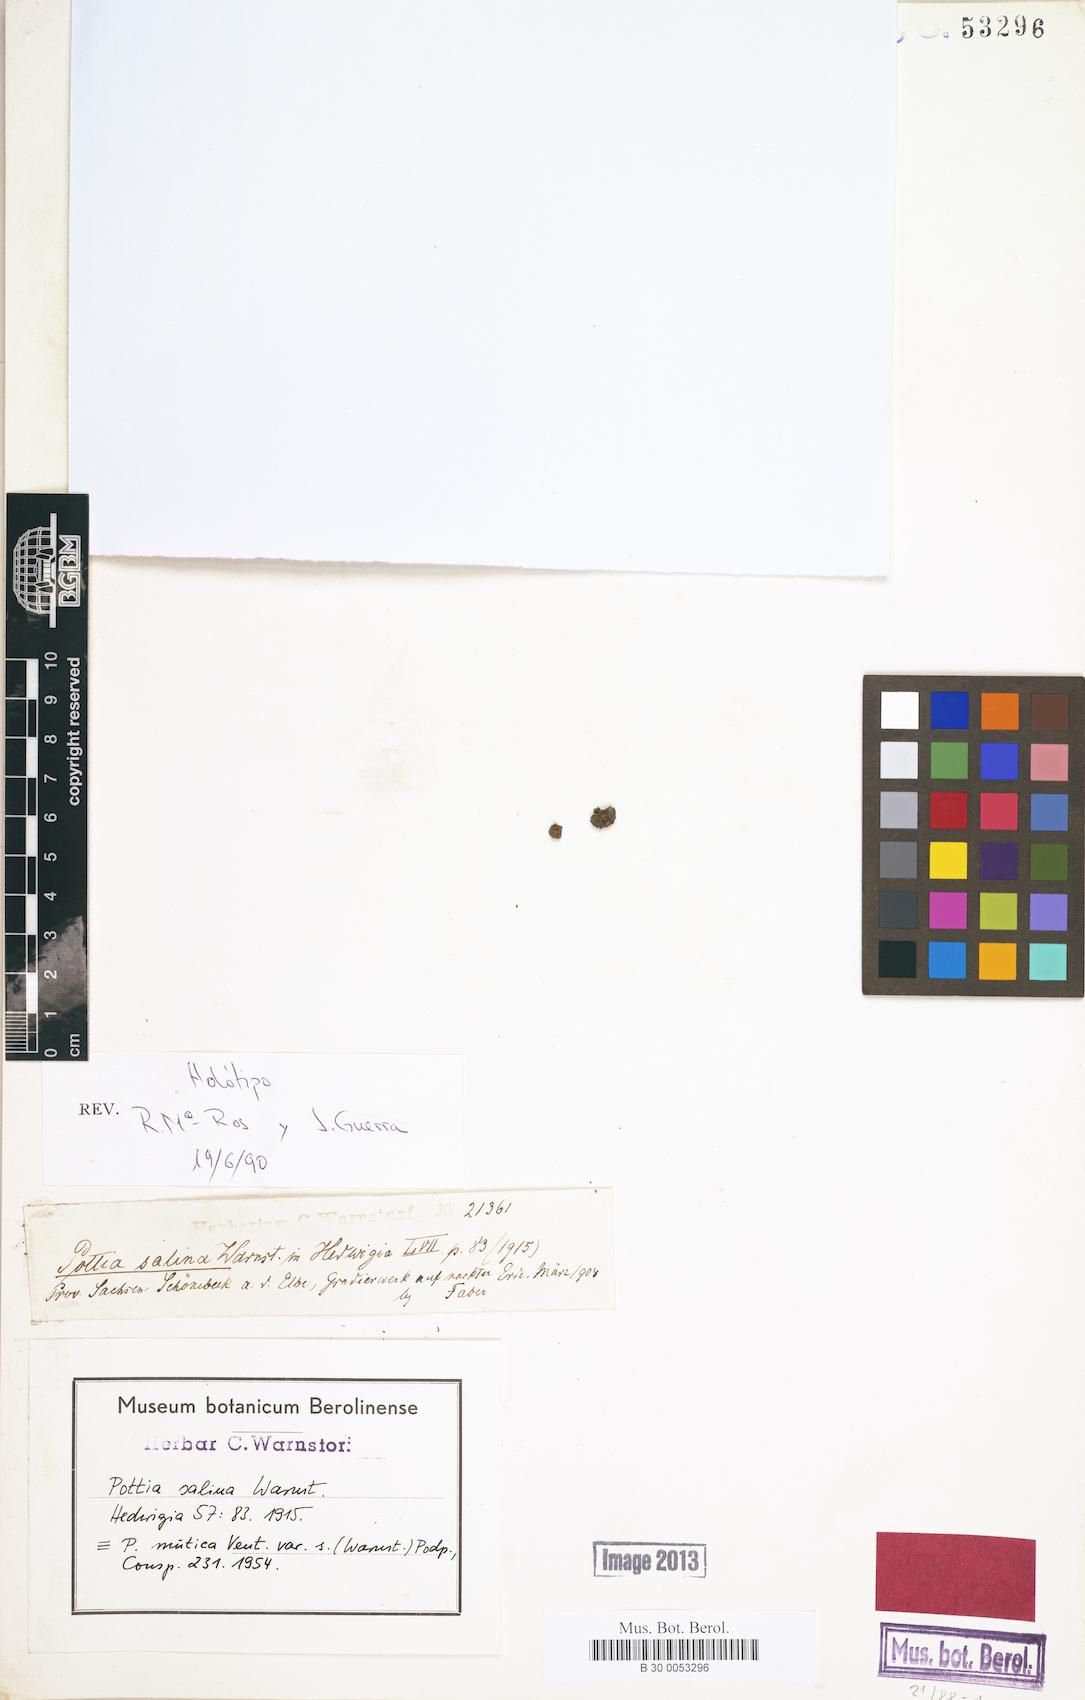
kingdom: Plantae
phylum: Bryophyta
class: Bryopsida
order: Pottiales
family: Pottiaceae
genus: Microbryum
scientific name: Microbryum muticum
